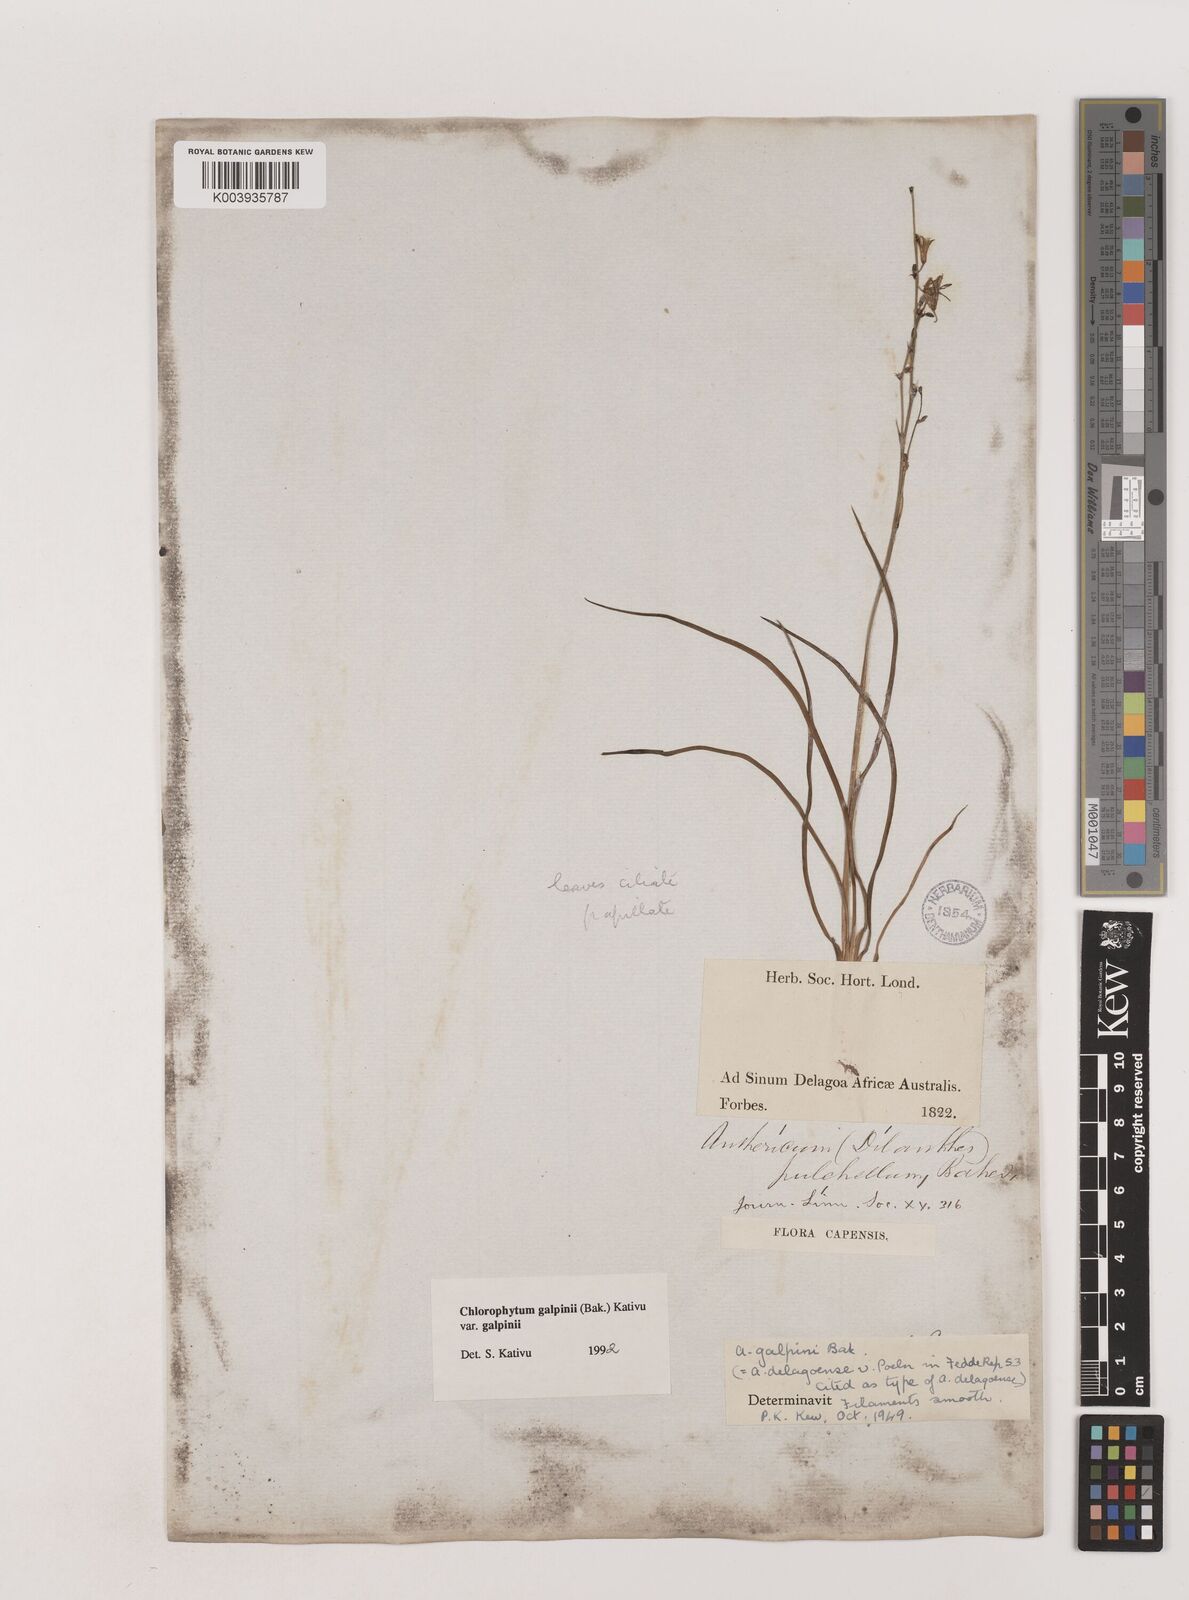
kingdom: Plantae
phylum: Tracheophyta
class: Liliopsida
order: Asparagales
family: Asparagaceae
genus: Chlorophytum
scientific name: Chlorophytum galpinii
